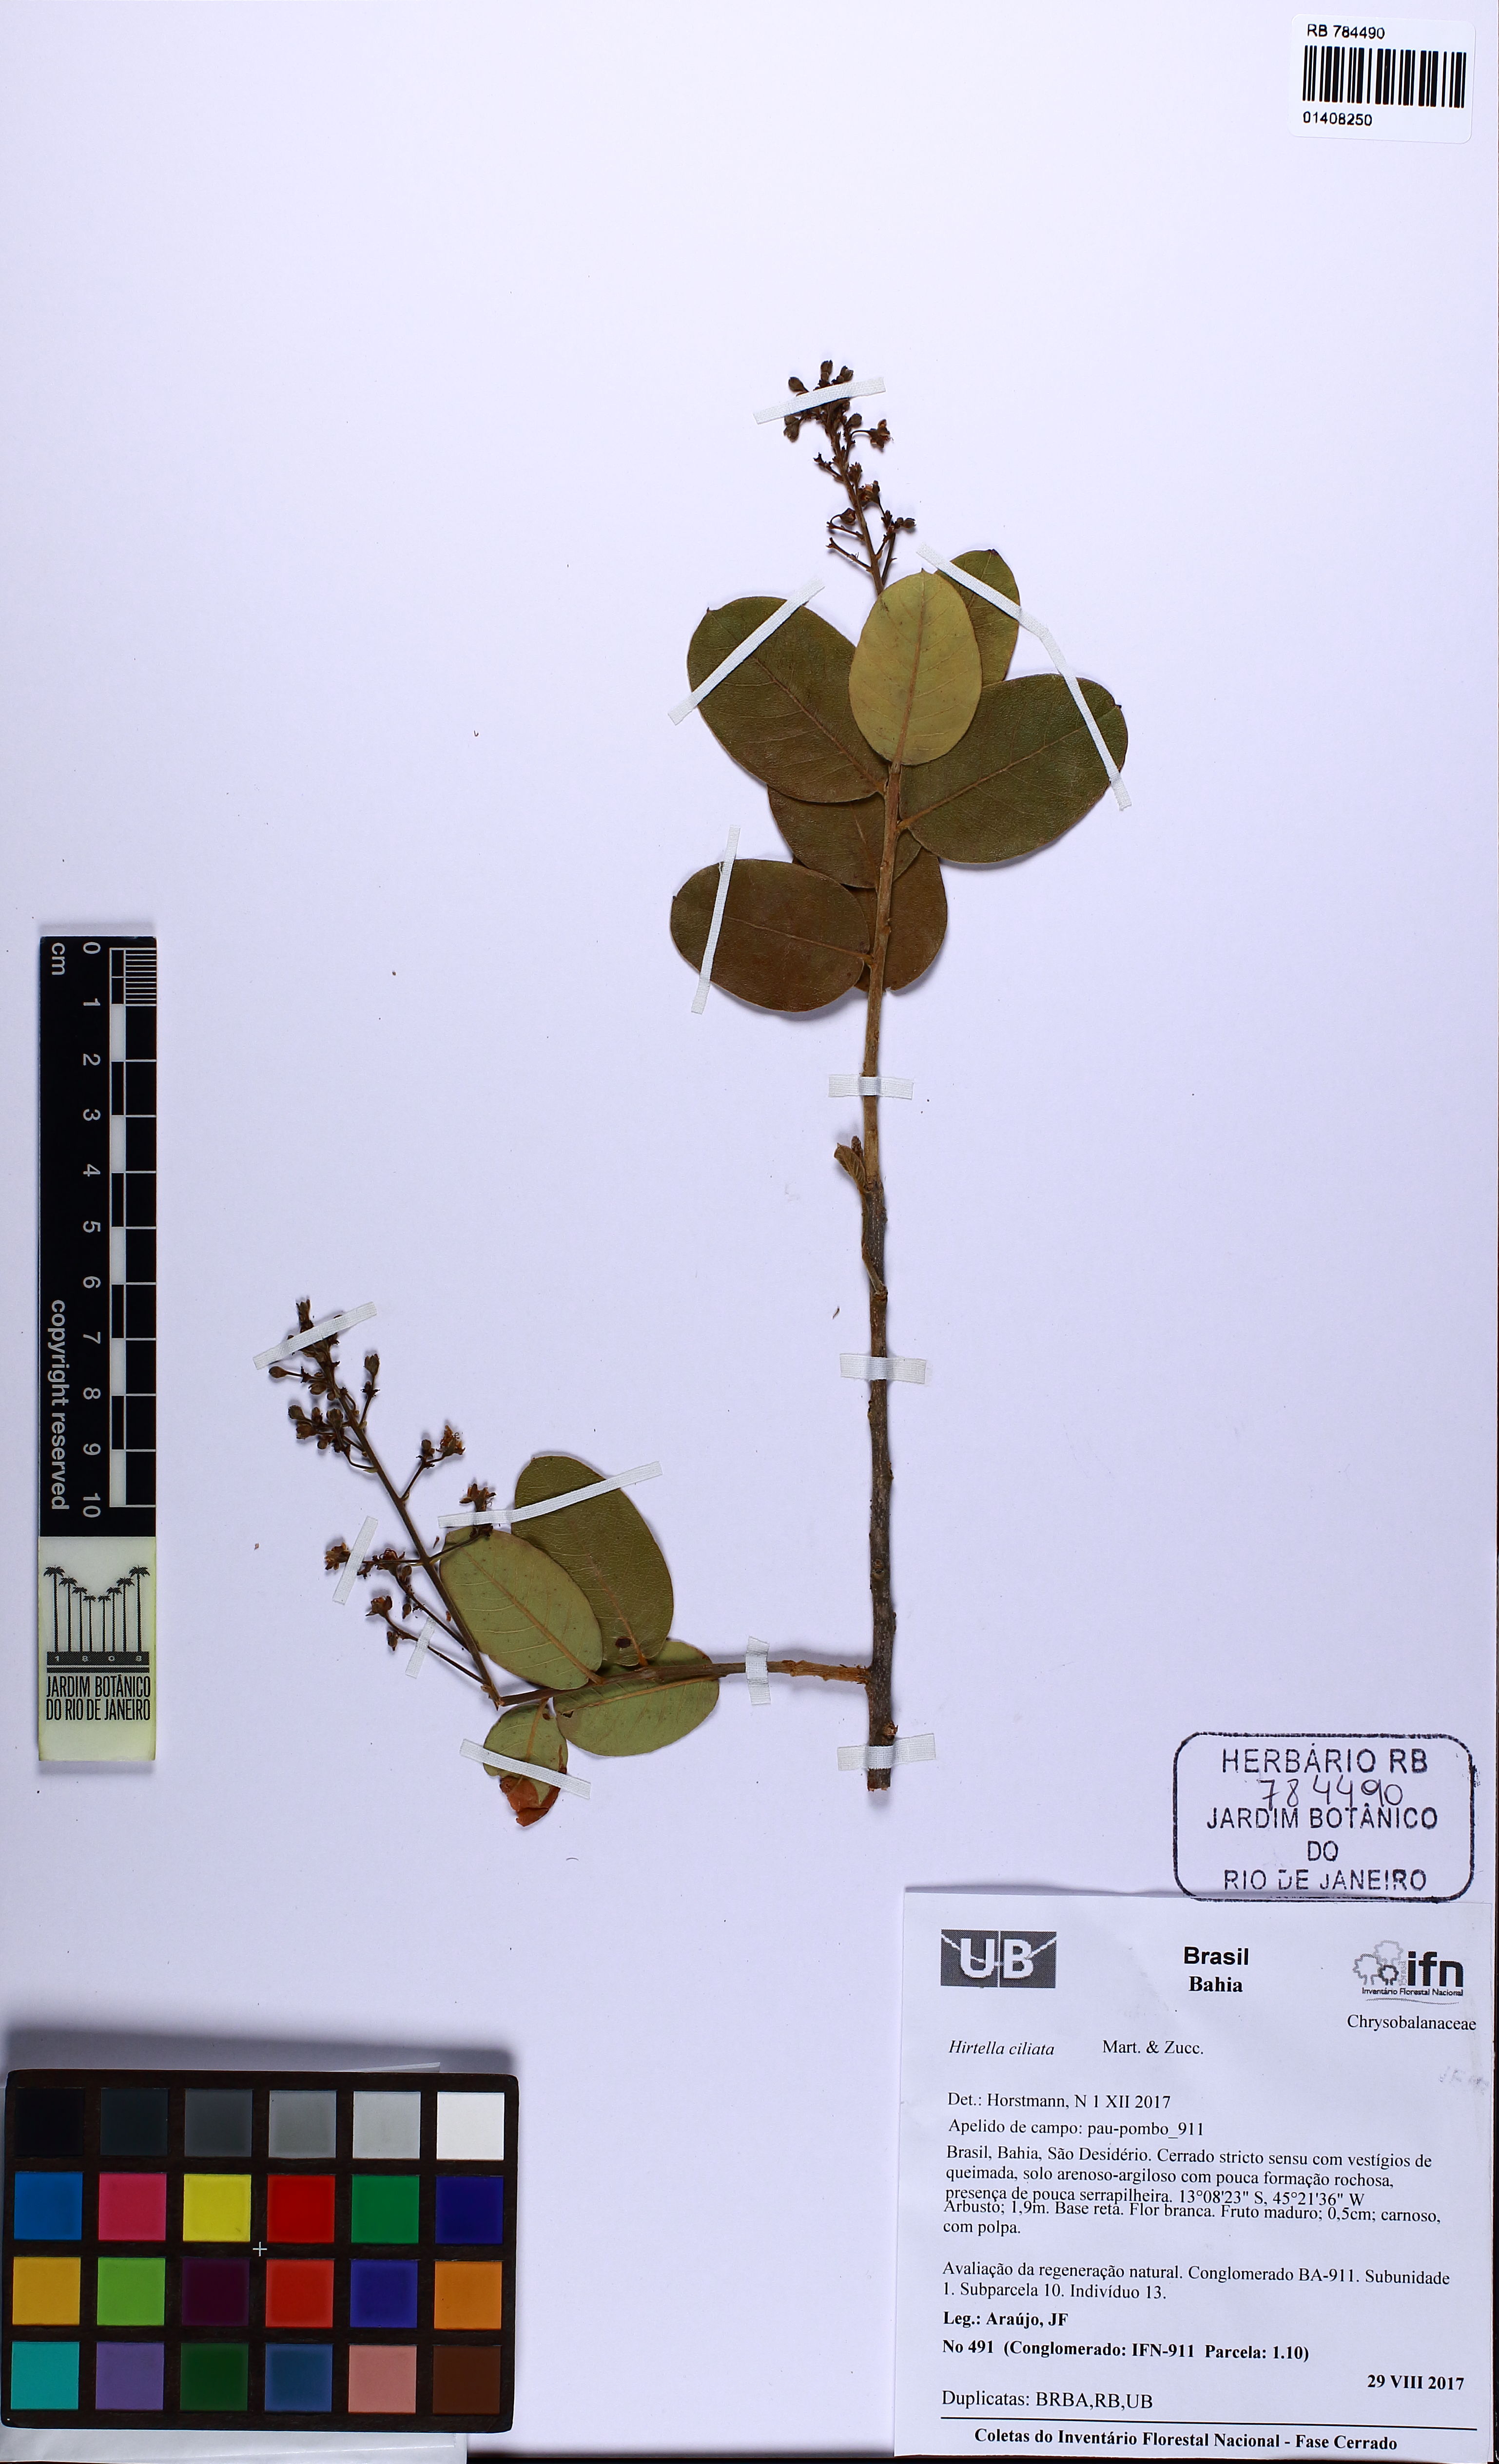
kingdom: Plantae
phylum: Tracheophyta
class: Magnoliopsida
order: Malpighiales
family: Chrysobalanaceae
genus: Hirtella
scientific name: Hirtella ciliata
